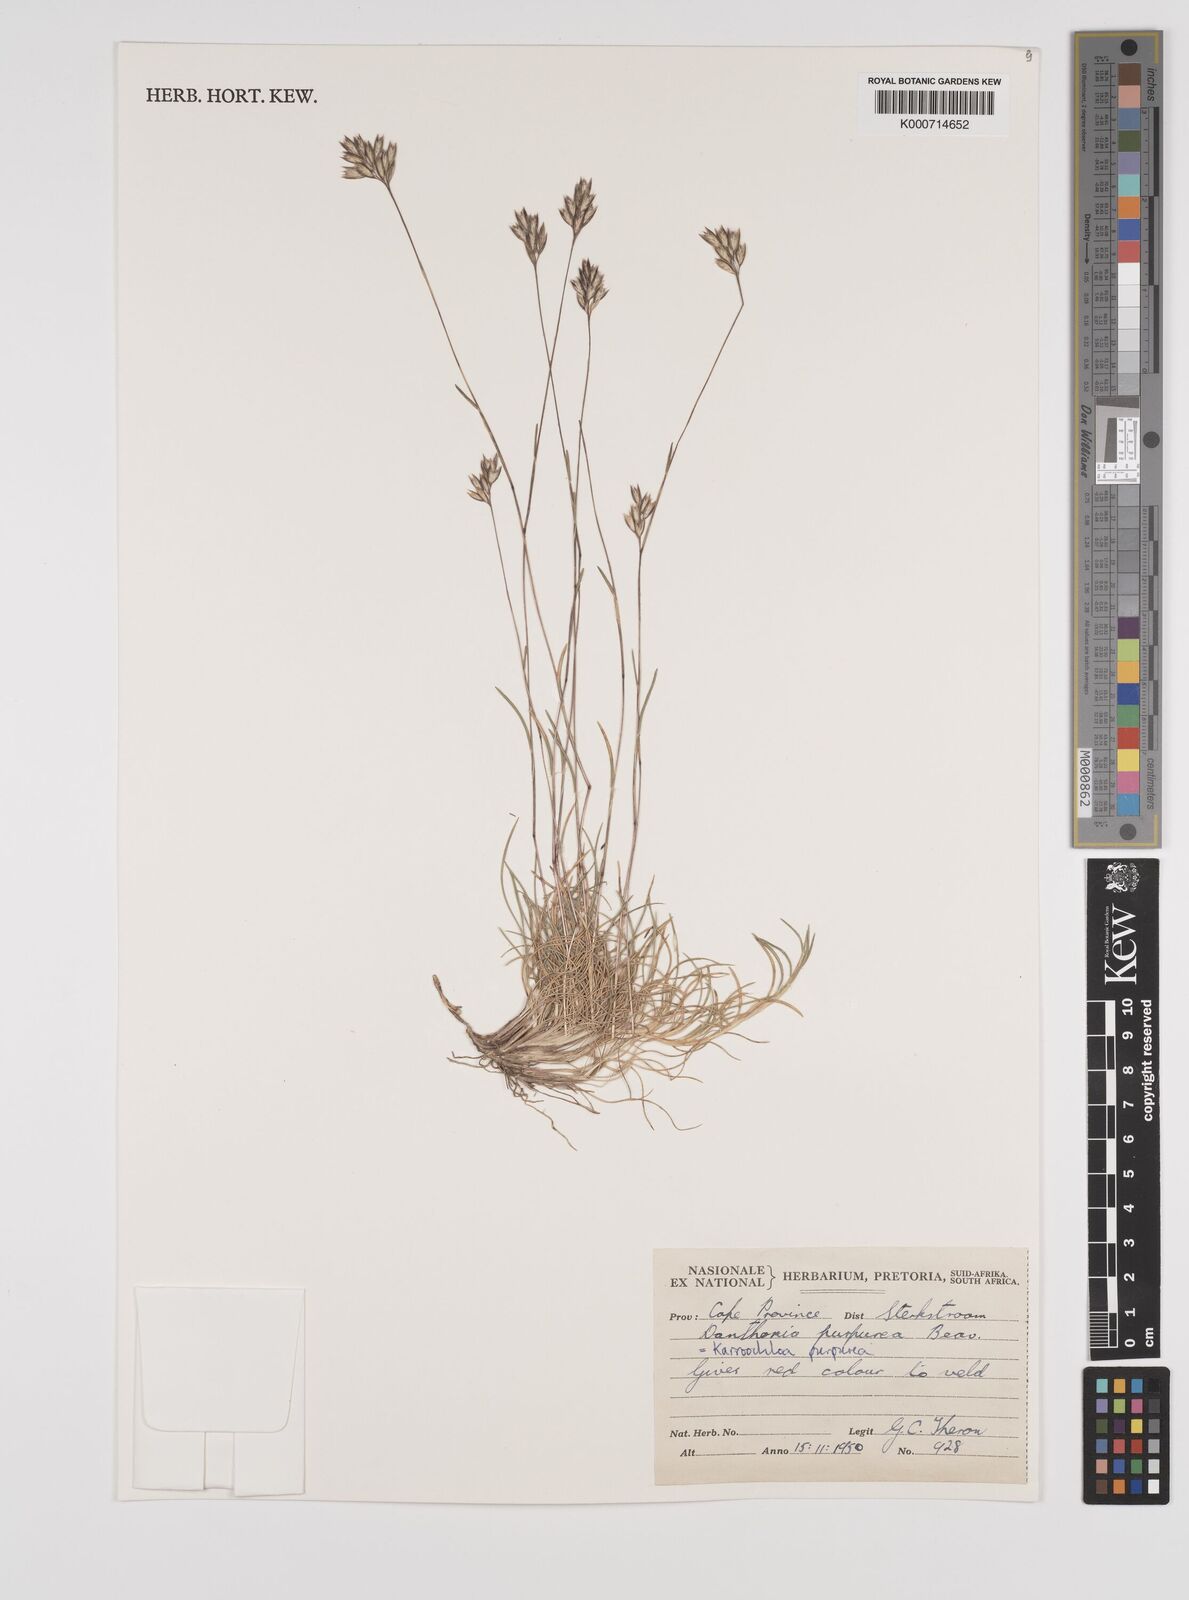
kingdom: Plantae
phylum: Tracheophyta
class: Liliopsida
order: Poales
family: Poaceae
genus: Rytidosperma
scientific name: Rytidosperma
